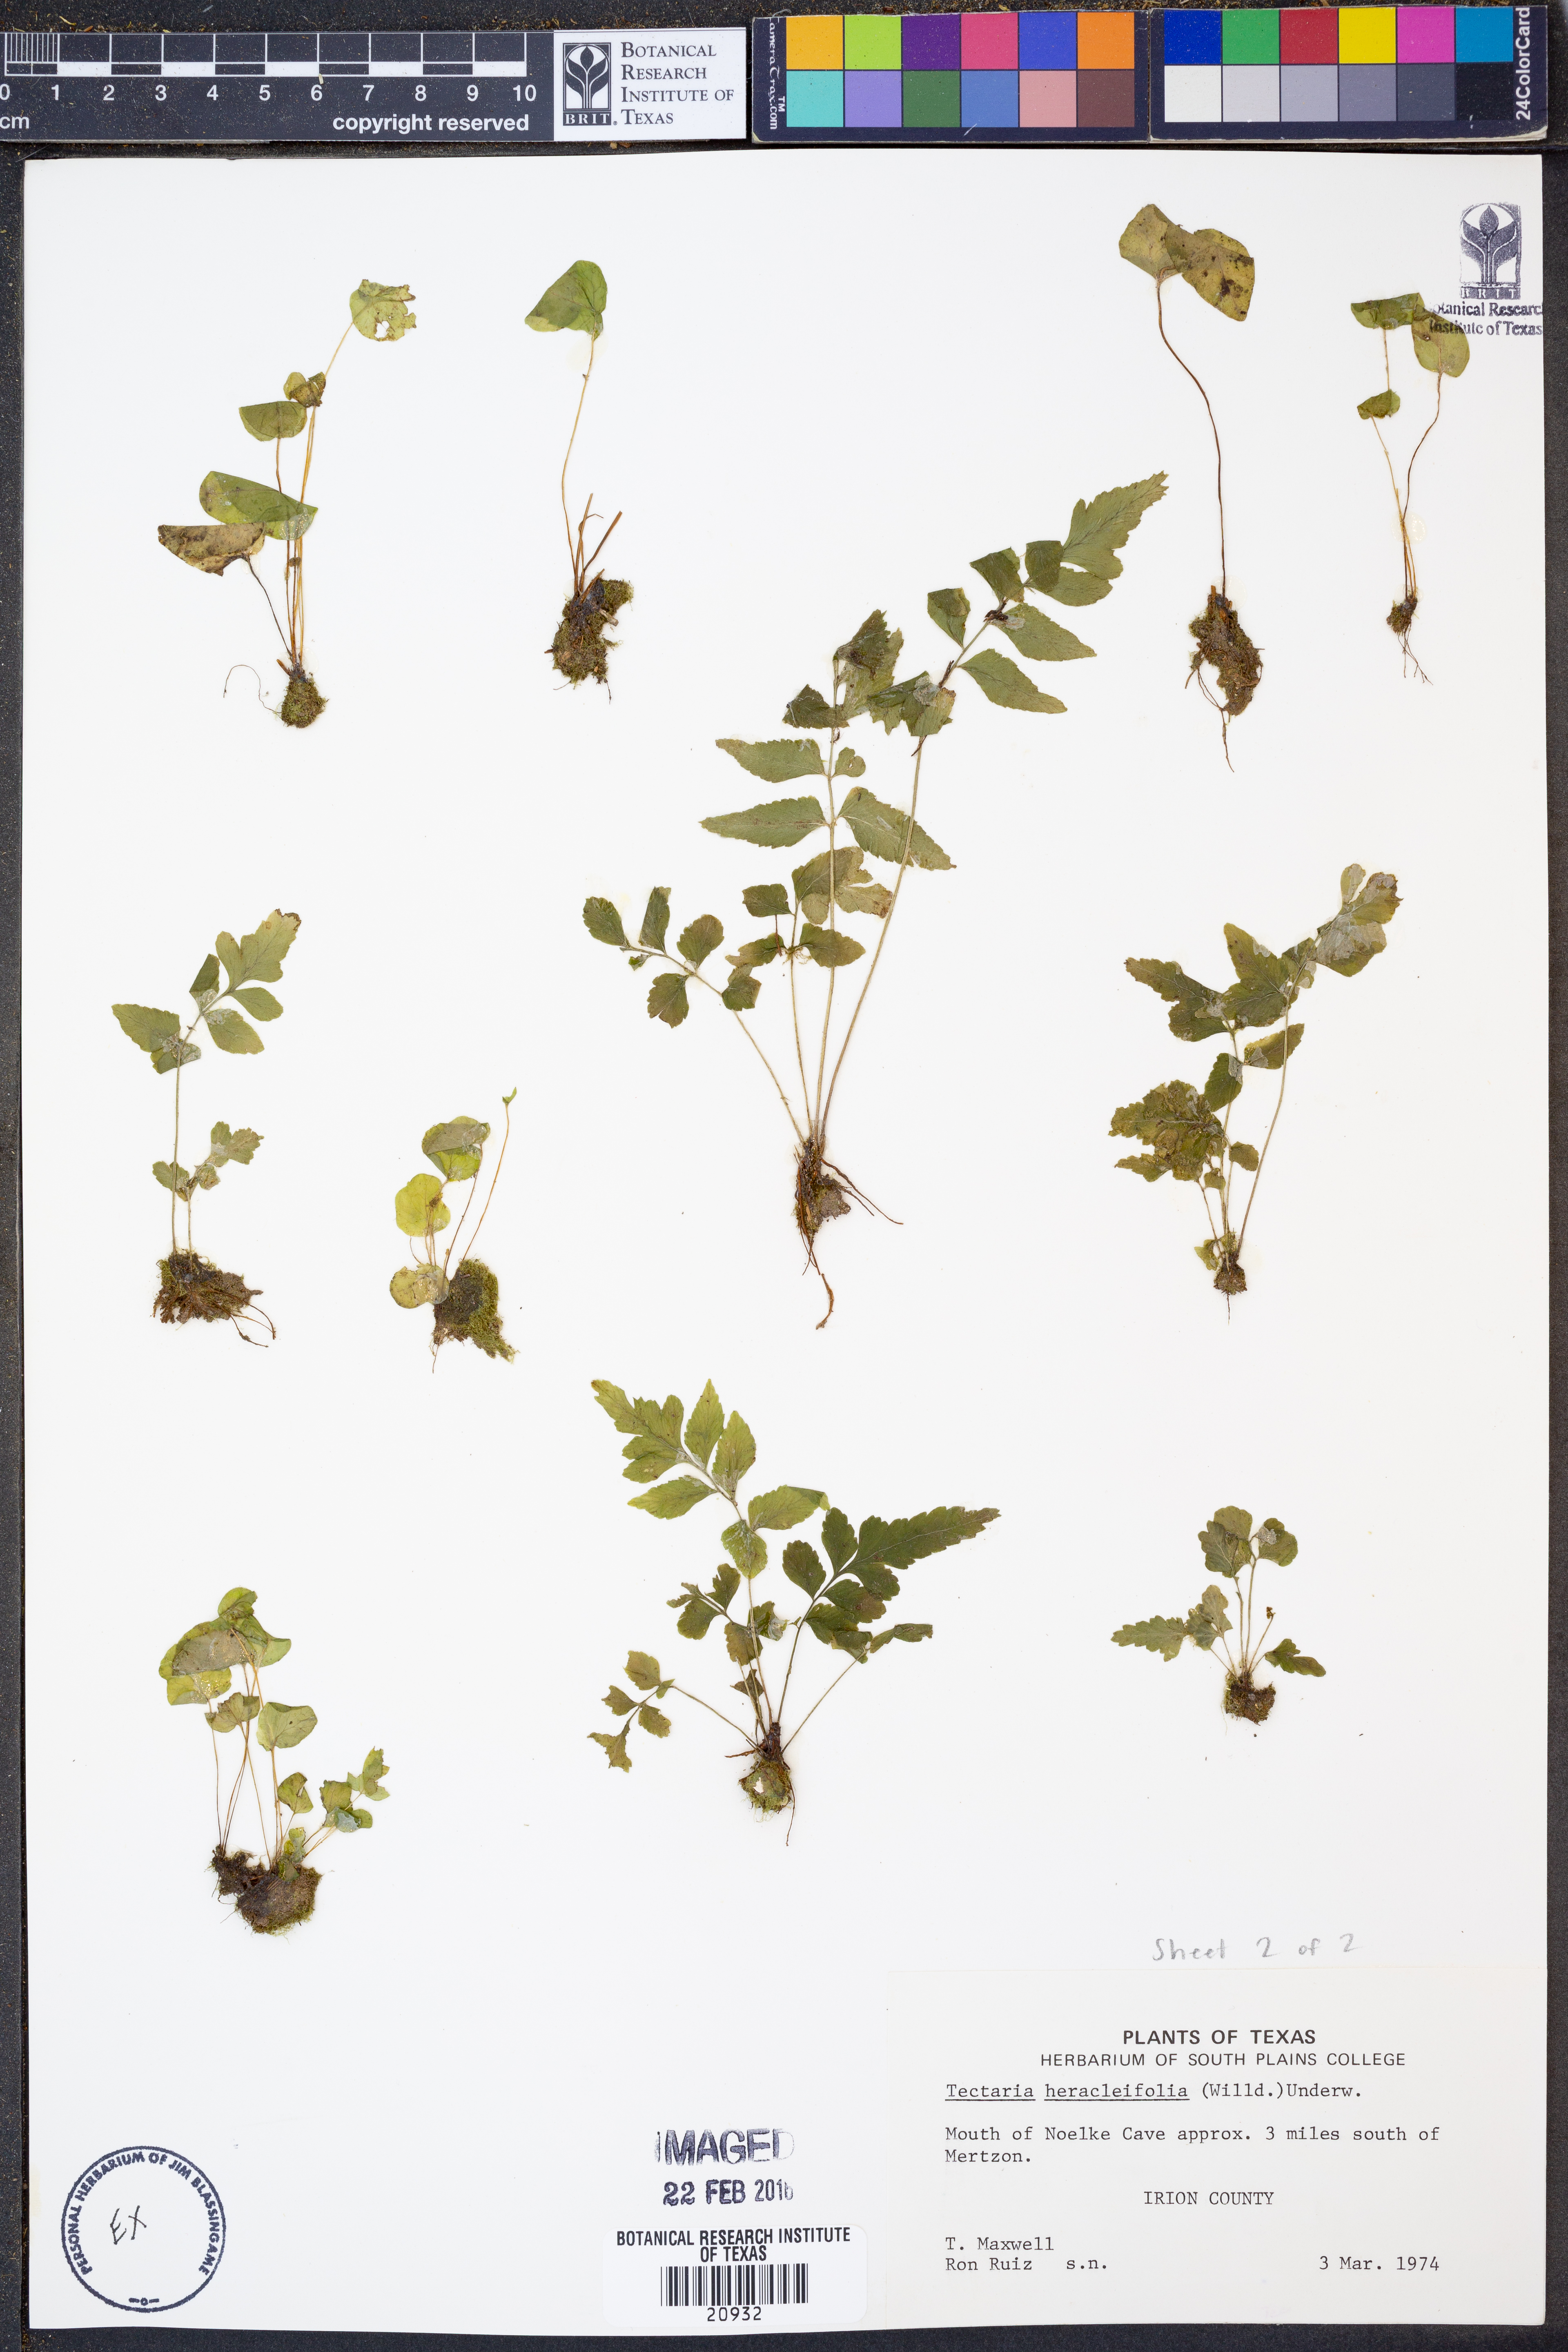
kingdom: Plantae
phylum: Tracheophyta
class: Polypodiopsida
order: Polypodiales
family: Tectariaceae
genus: Tectaria
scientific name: Tectaria heracleifolia
